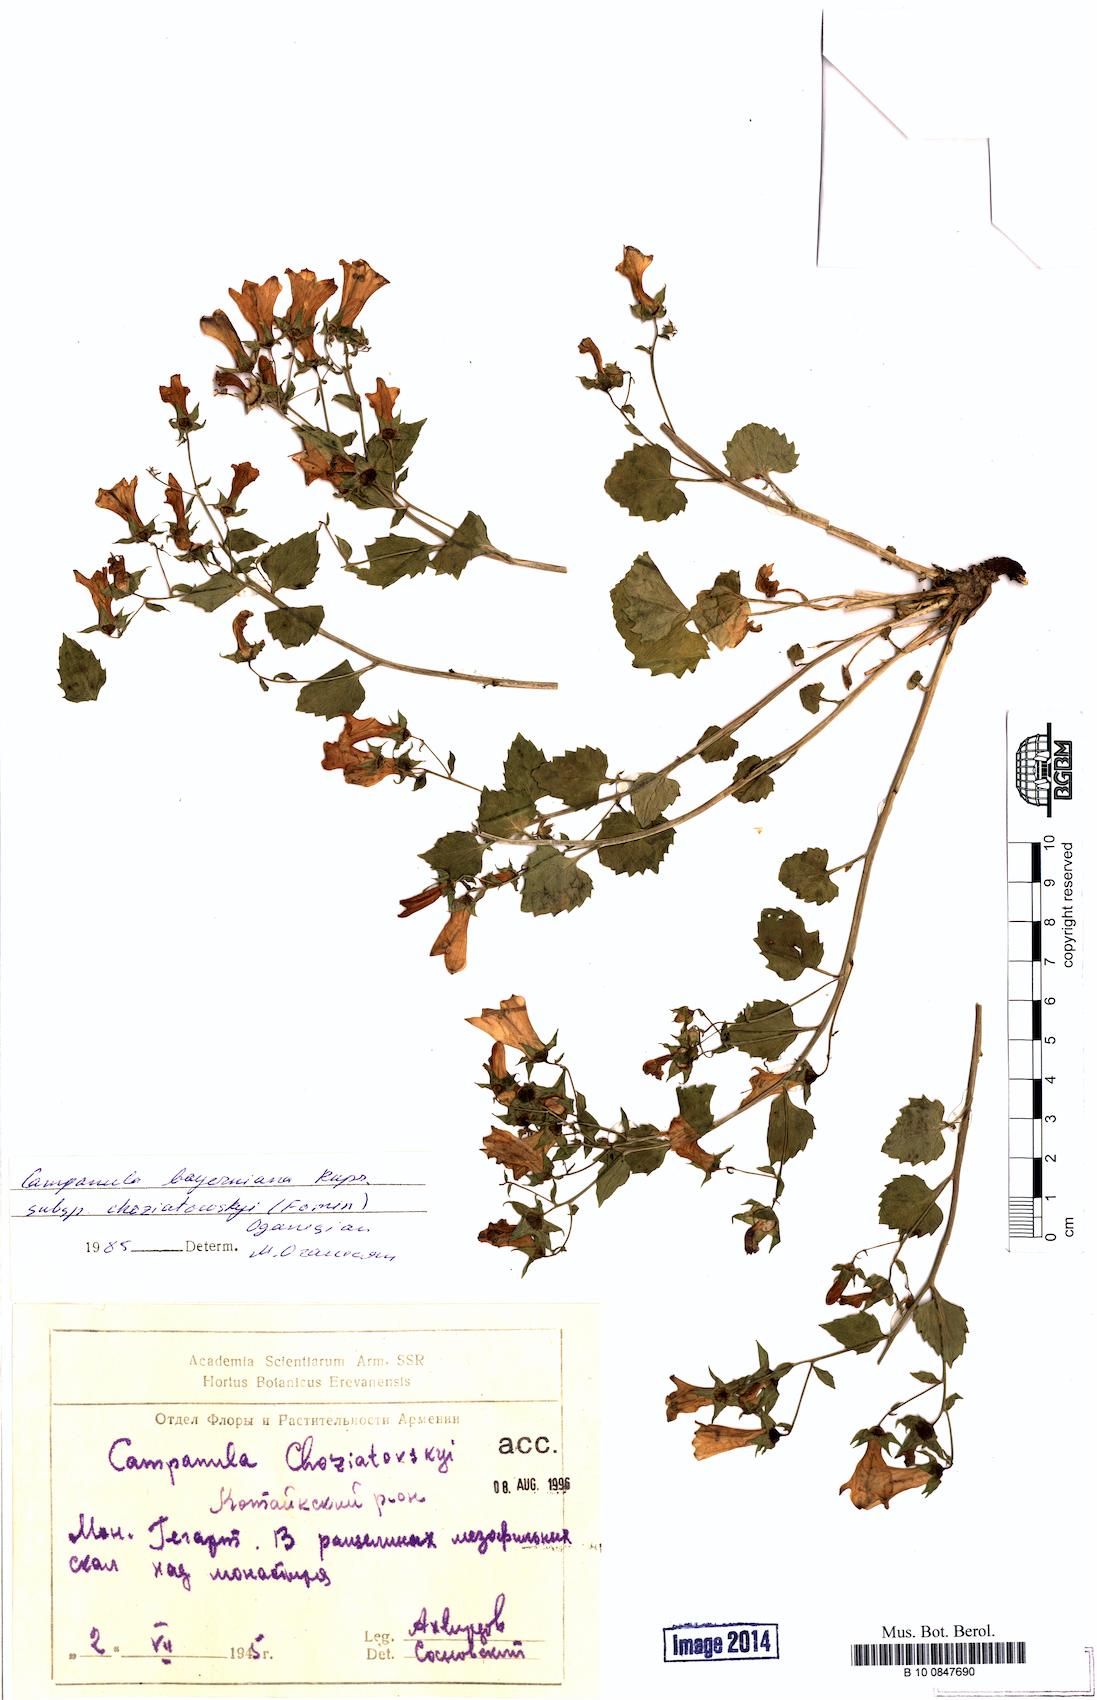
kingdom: Plantae
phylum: Tracheophyta
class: Magnoliopsida
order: Asterales
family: Campanulaceae
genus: Campanula
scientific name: Campanula bayerniana
